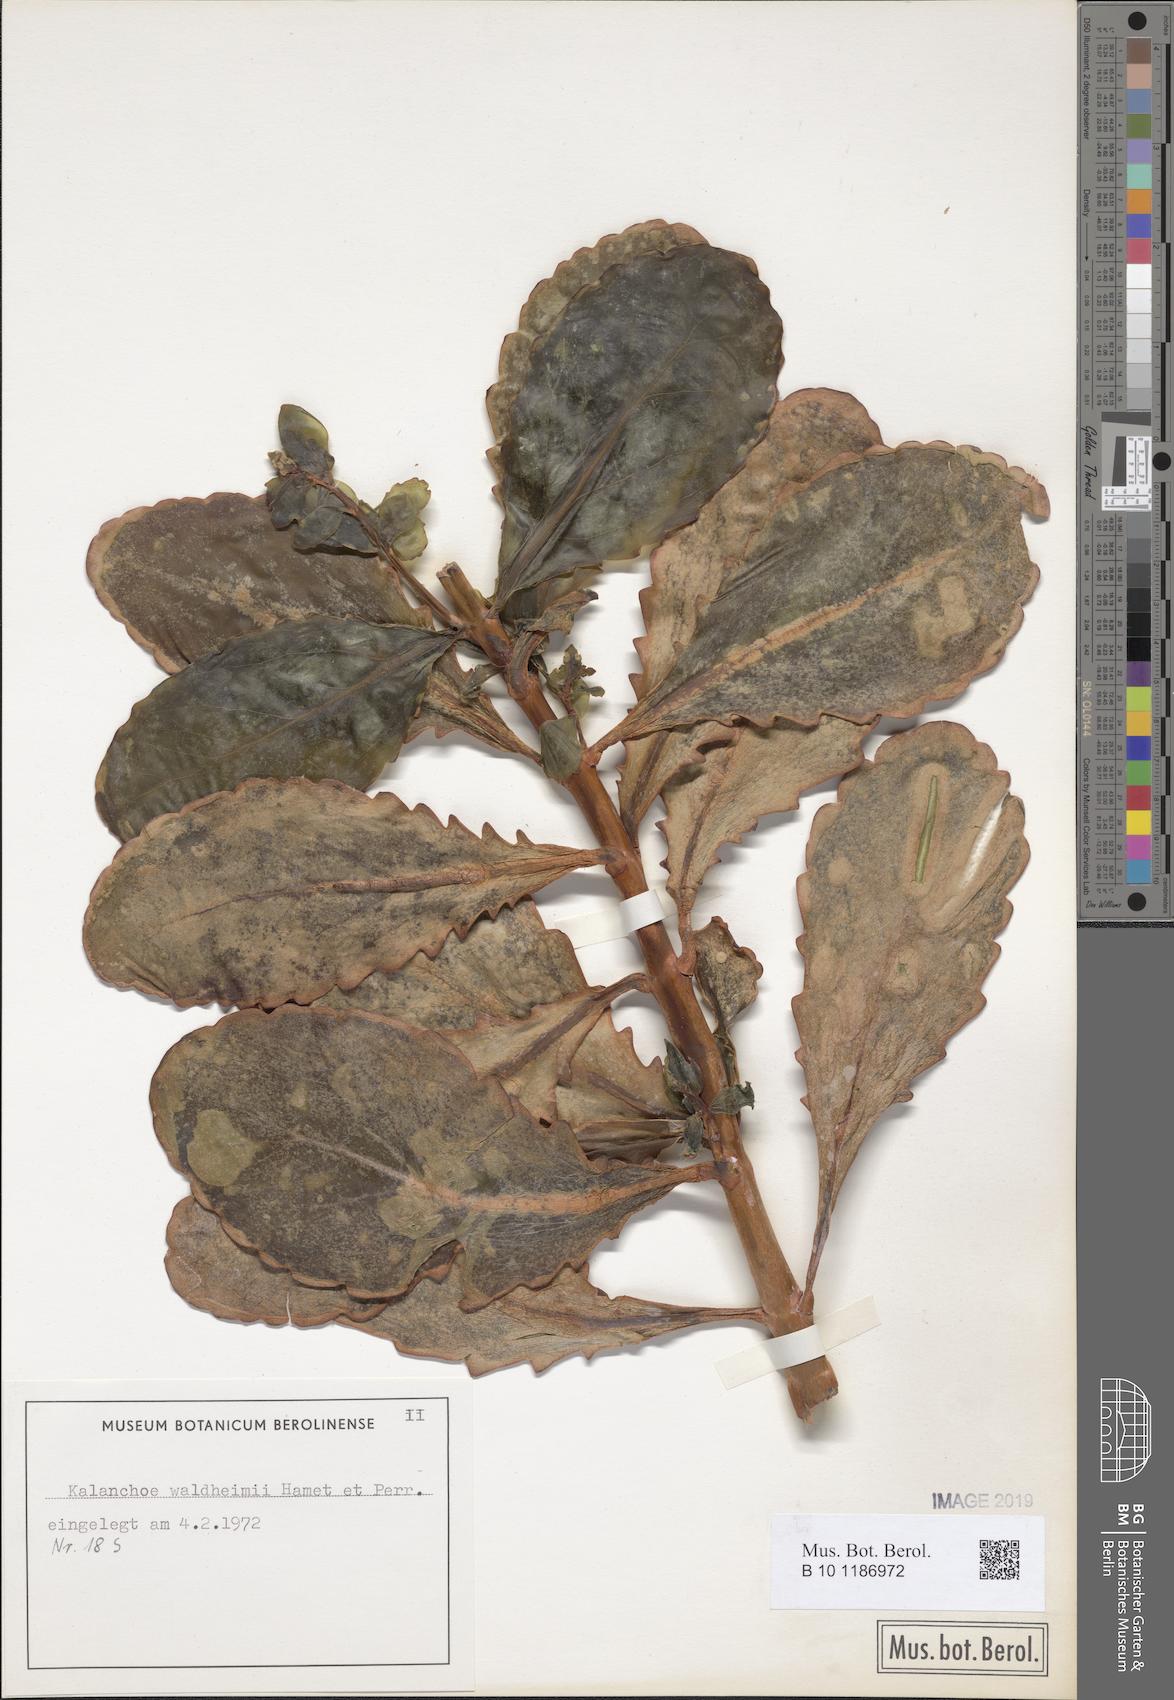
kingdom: Plantae
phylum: Tracheophyta
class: Magnoliopsida
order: Saxifragales
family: Crassulaceae
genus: Kalanchoe
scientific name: Kalanchoe waldheimii
